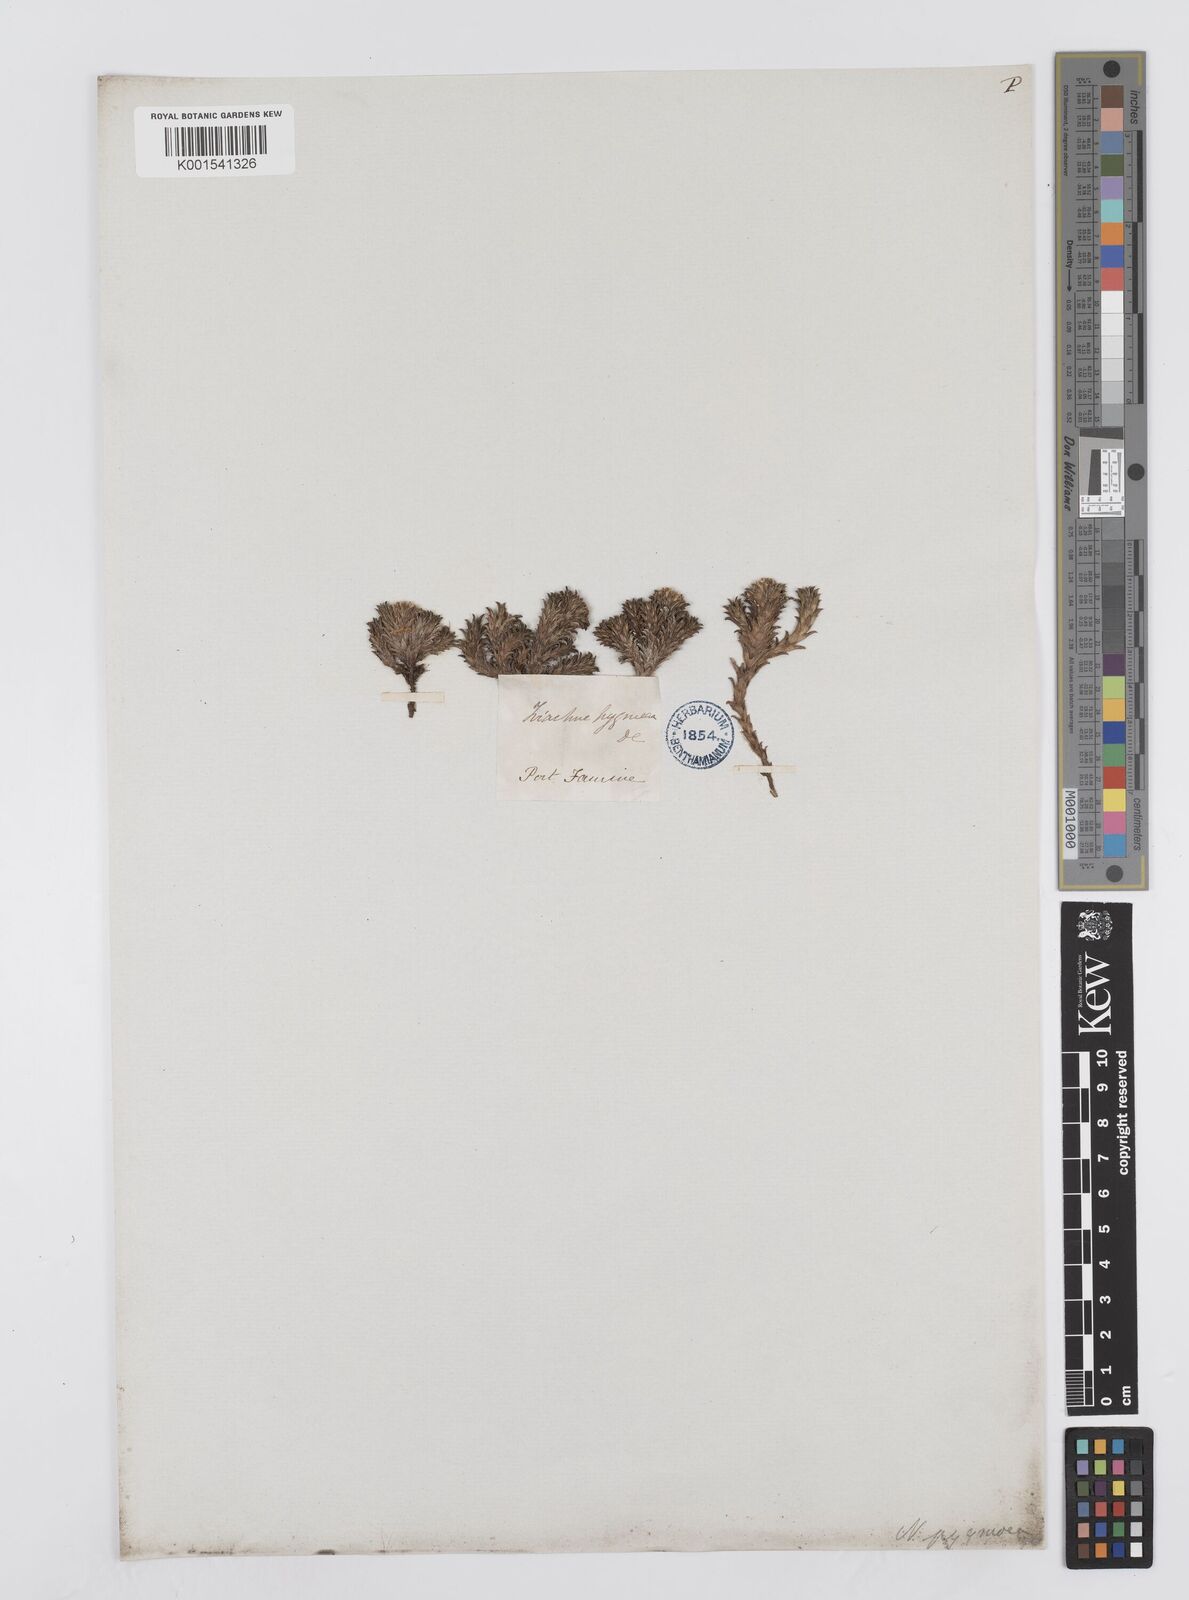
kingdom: Plantae
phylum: Tracheophyta
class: Magnoliopsida
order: Asterales
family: Asteraceae
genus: Nassauvia
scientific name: Nassauvia pygmaea
